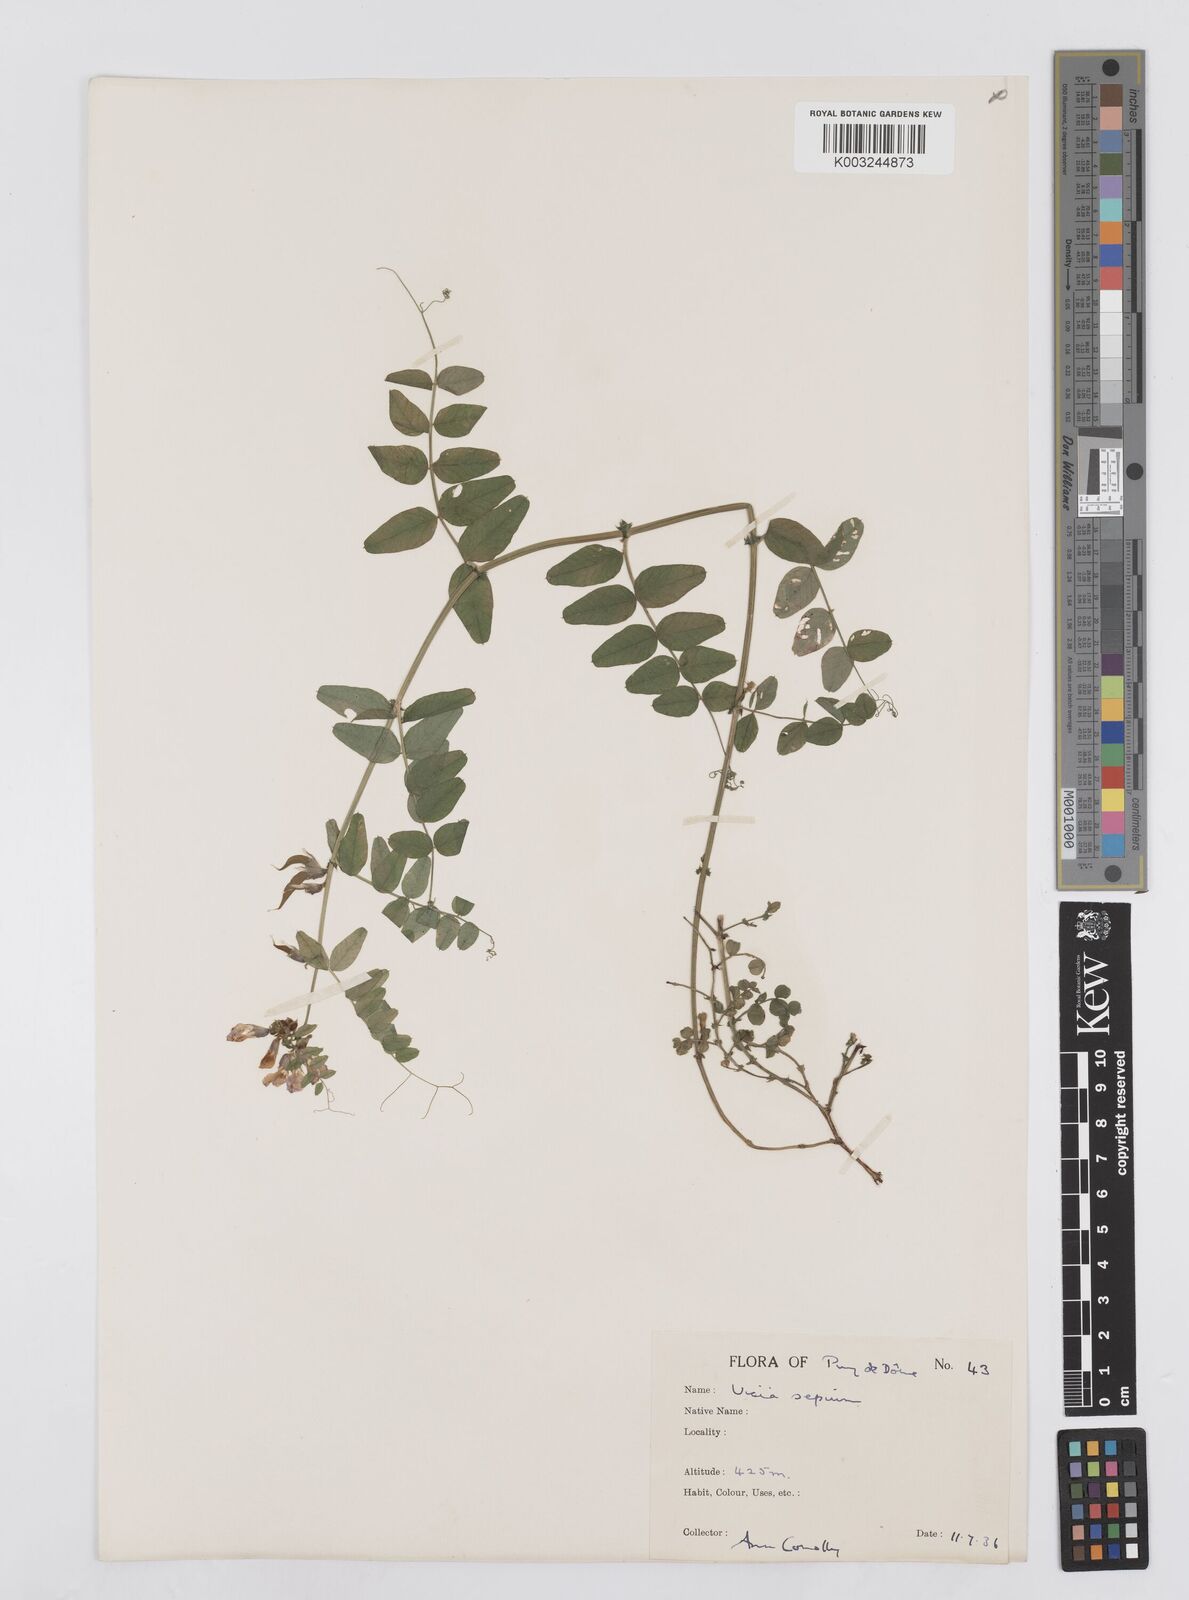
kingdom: Plantae
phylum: Tracheophyta
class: Magnoliopsida
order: Fabales
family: Fabaceae
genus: Vicia
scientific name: Vicia sepium
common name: Bush vetch
